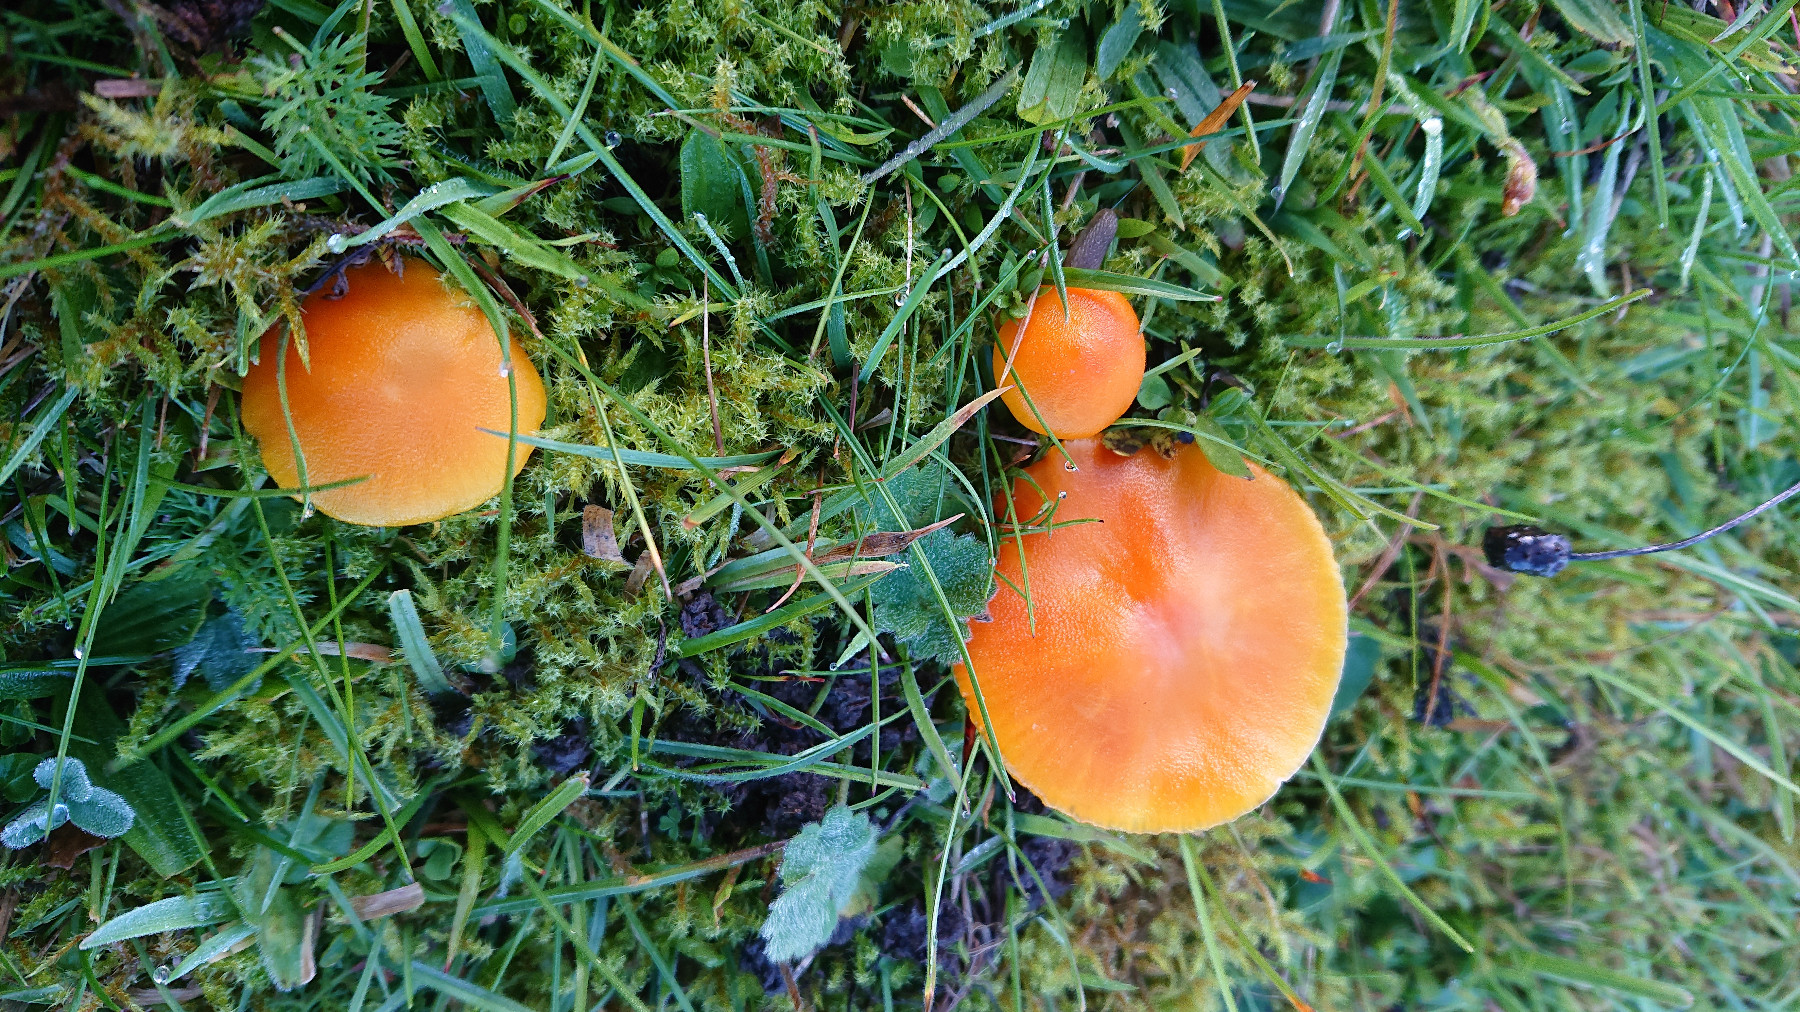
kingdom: Fungi
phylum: Basidiomycota
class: Agaricomycetes
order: Agaricales
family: Hygrophoraceae
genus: Hygrocybe
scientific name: Hygrocybe ceracea
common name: voksgul vokshat
